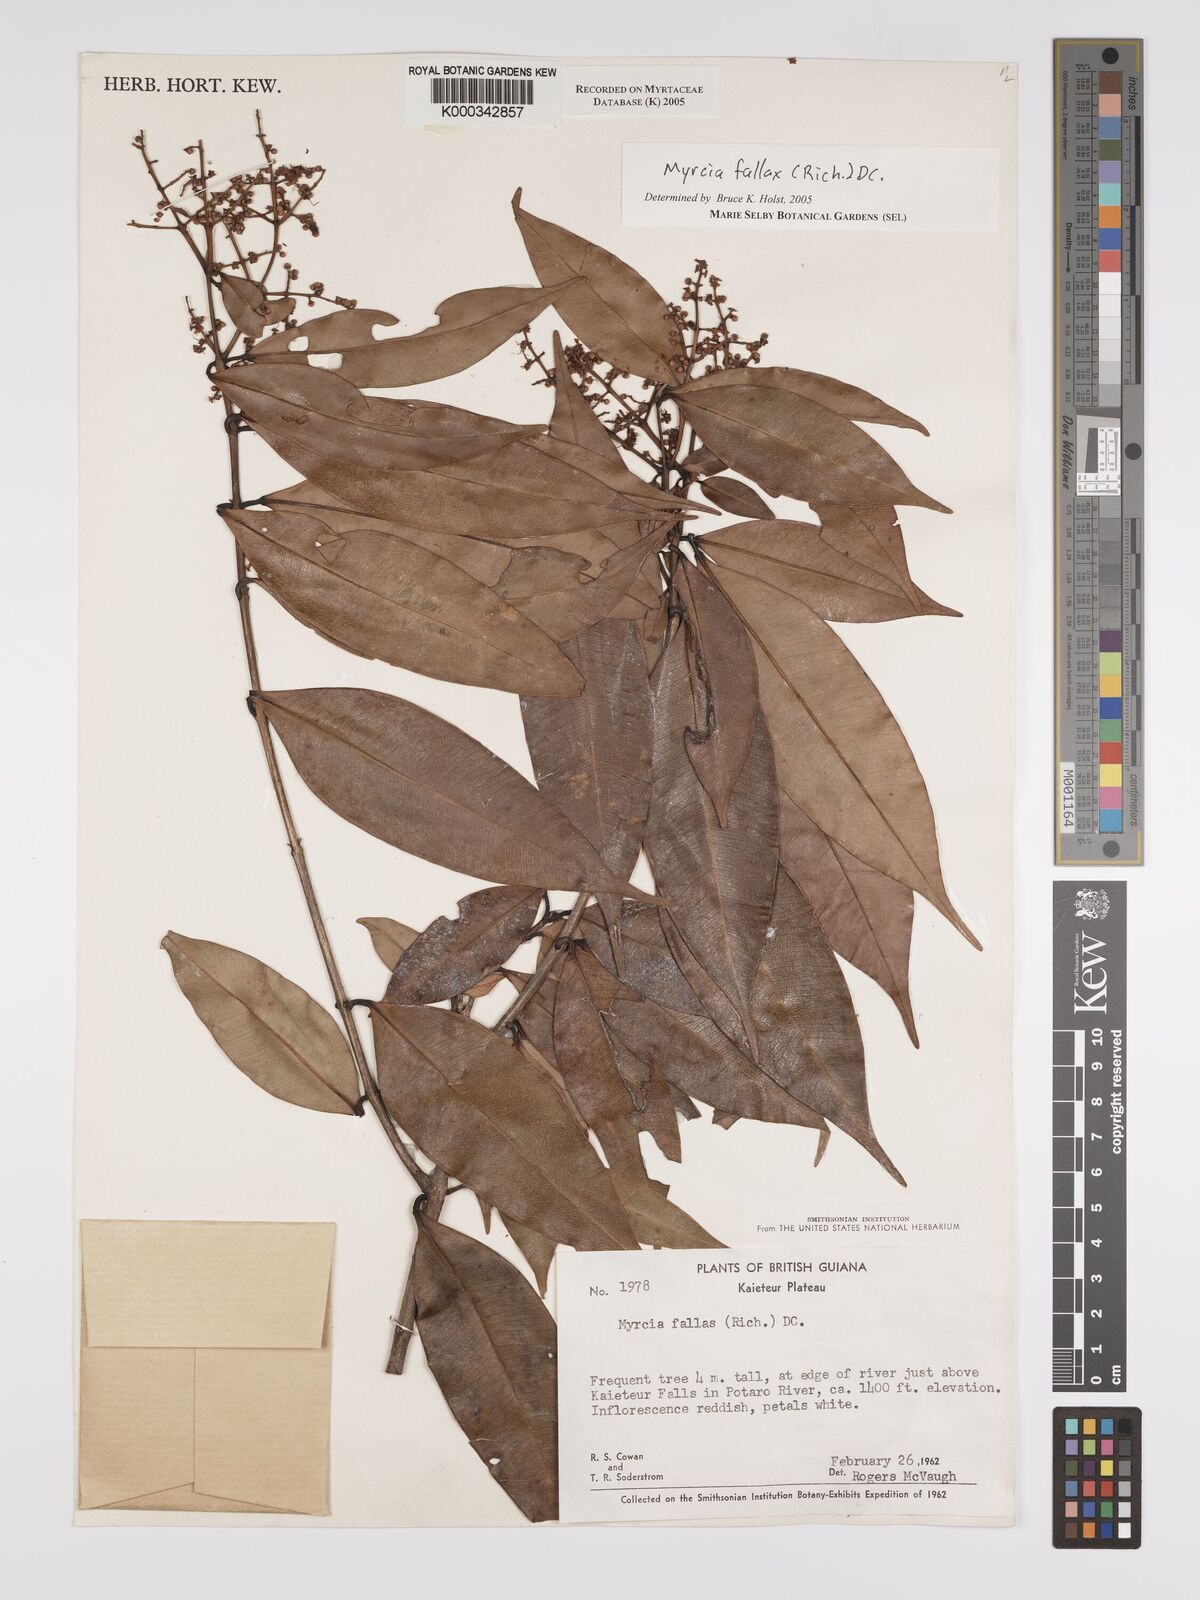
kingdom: Plantae
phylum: Tracheophyta
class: Magnoliopsida
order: Myrtales
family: Myrtaceae
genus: Myrcia
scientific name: Myrcia splendens
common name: Surinam cherry
